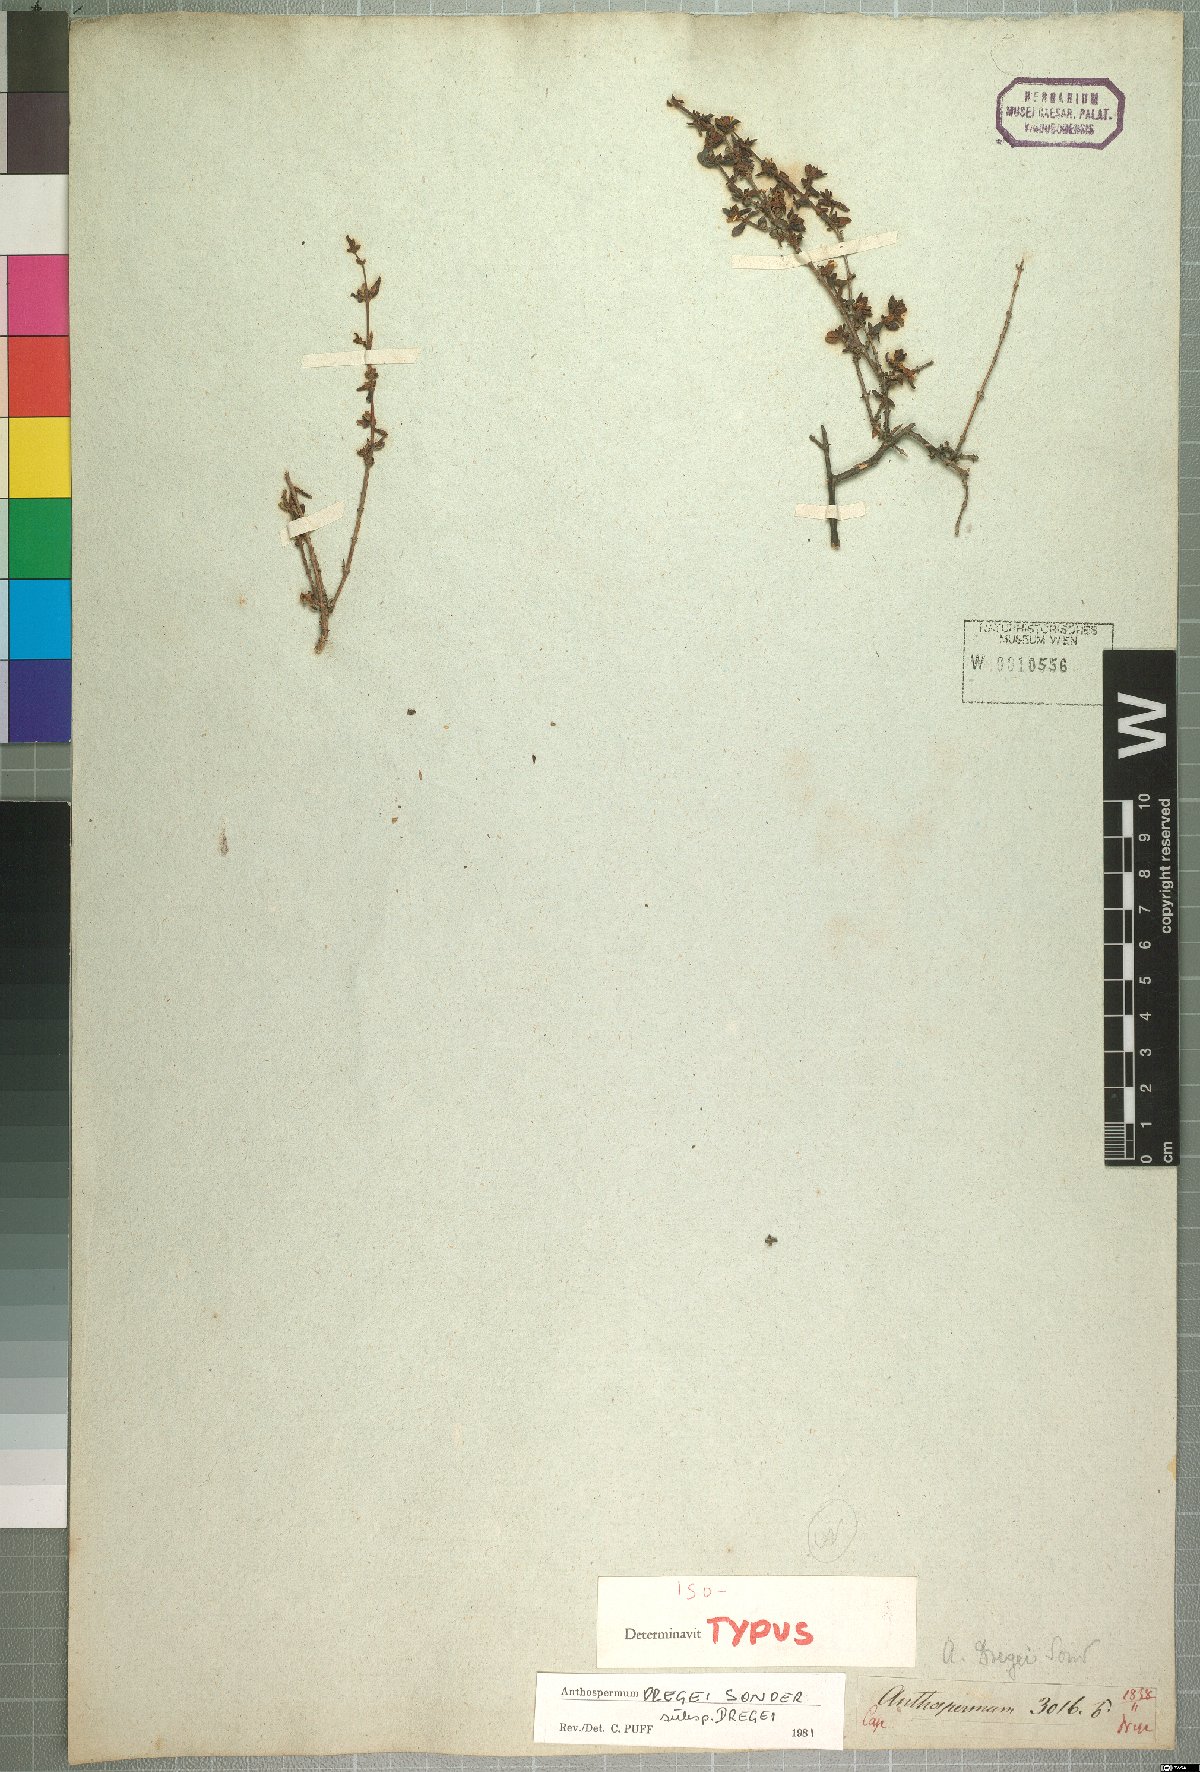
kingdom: Plantae
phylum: Tracheophyta
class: Magnoliopsida
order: Gentianales
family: Rubiaceae
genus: Anthospermum
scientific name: Anthospermum dregei
